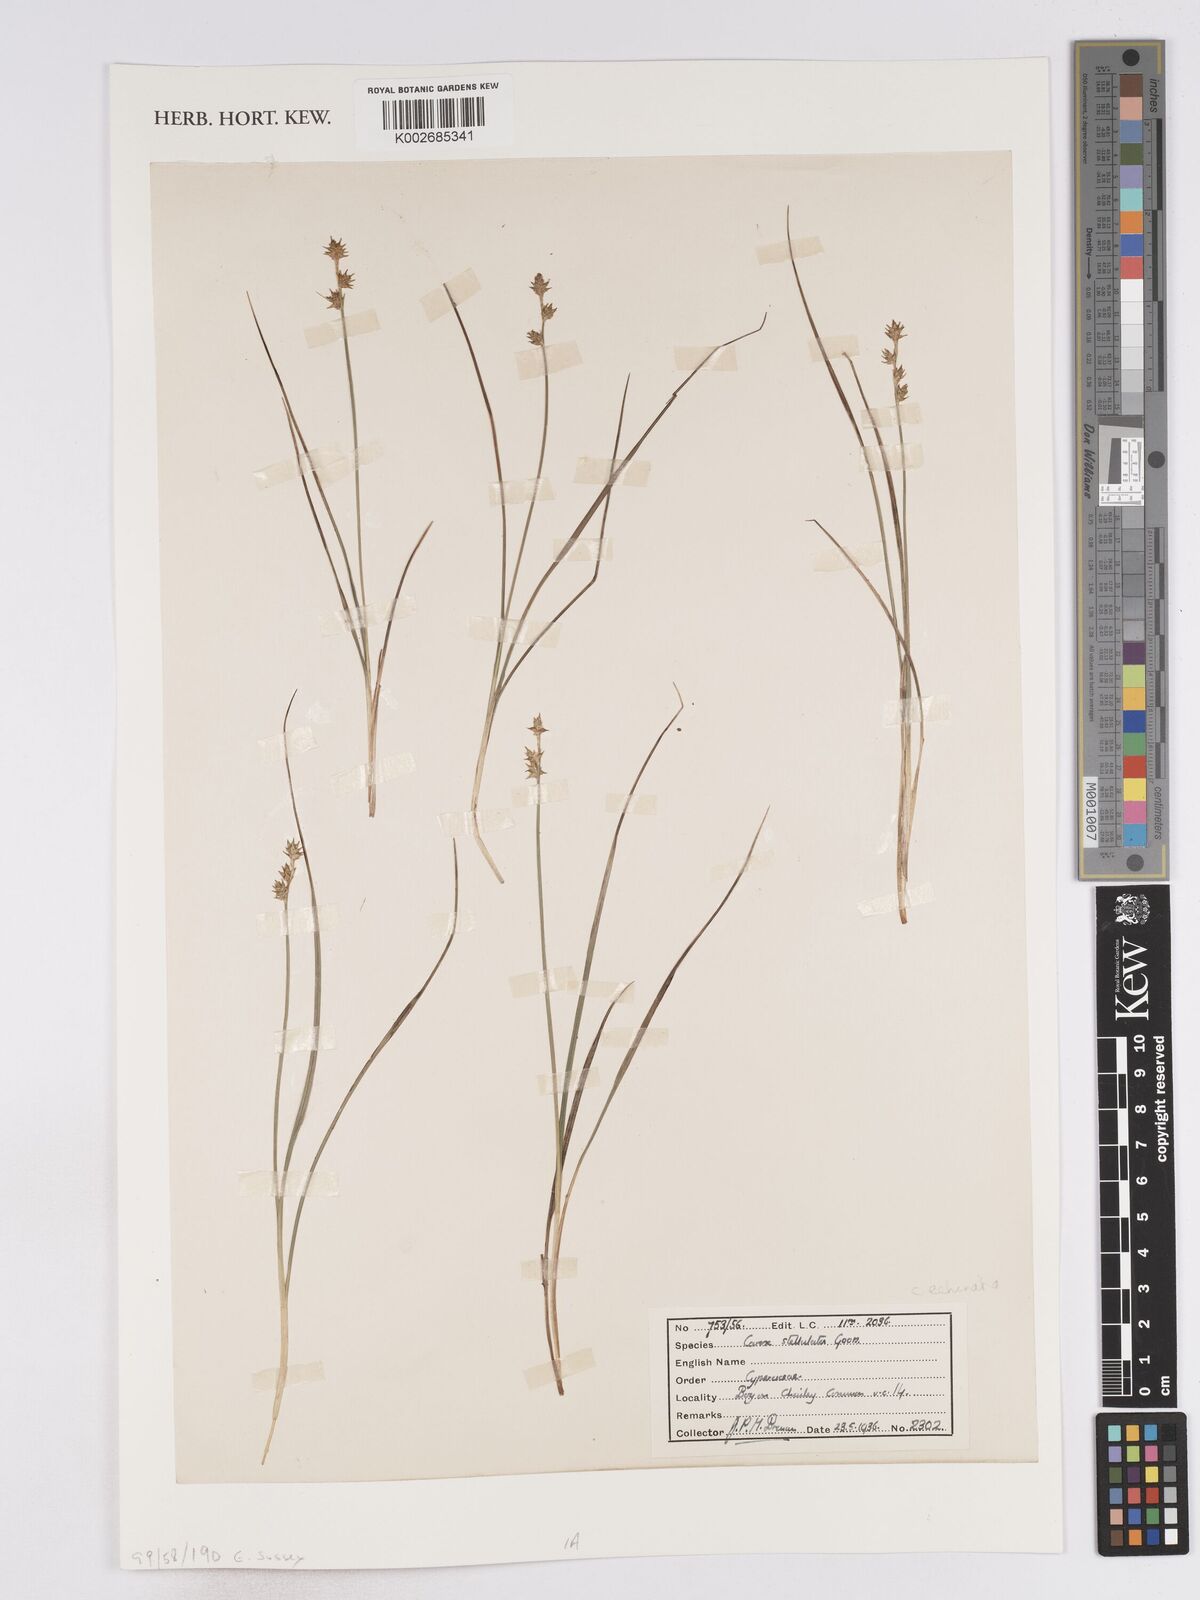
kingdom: Plantae
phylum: Tracheophyta
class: Liliopsida
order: Poales
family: Cyperaceae
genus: Carex
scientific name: Carex echinata
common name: Star sedge
